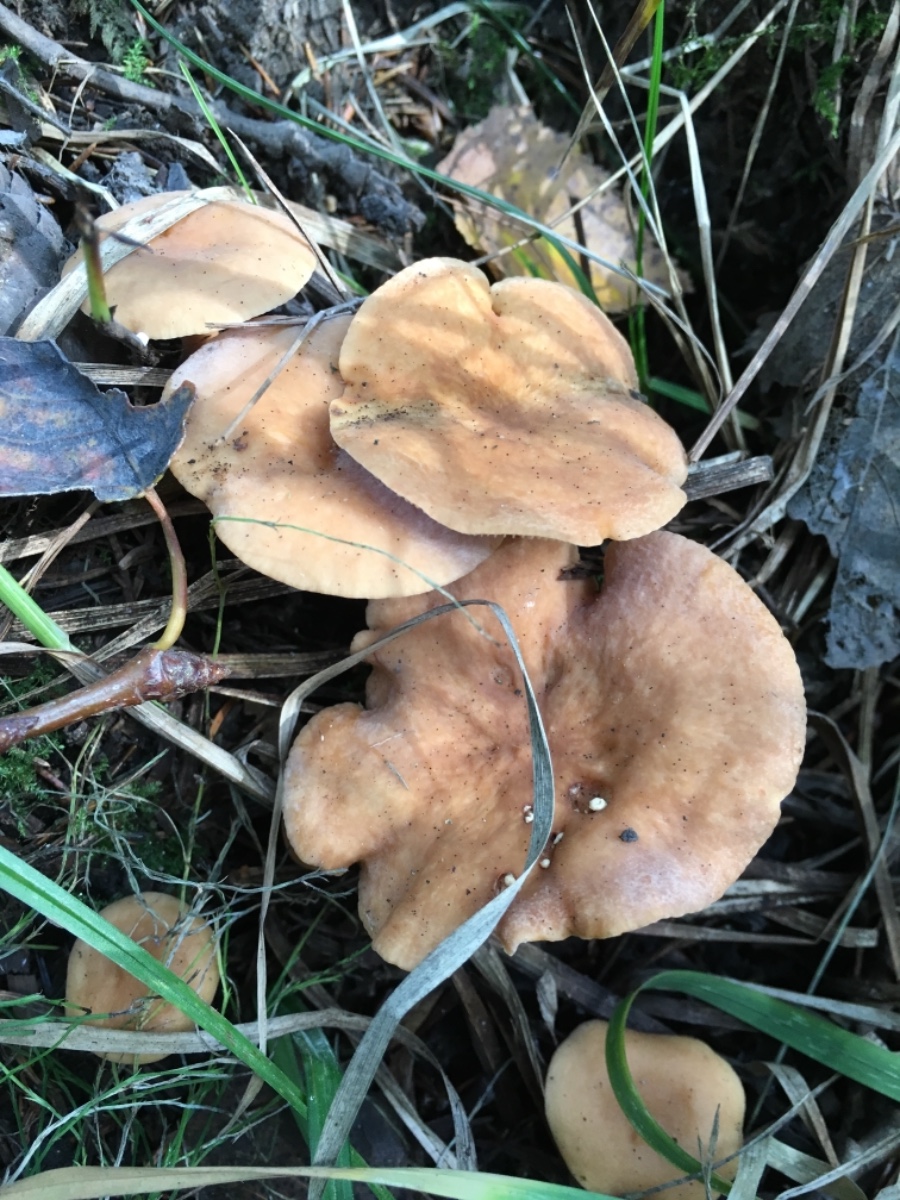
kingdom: Fungi
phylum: Basidiomycota
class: Agaricomycetes
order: Russulales
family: Russulaceae
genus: Lactarius
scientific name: Lactarius tabidus
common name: rynket mælkehat
